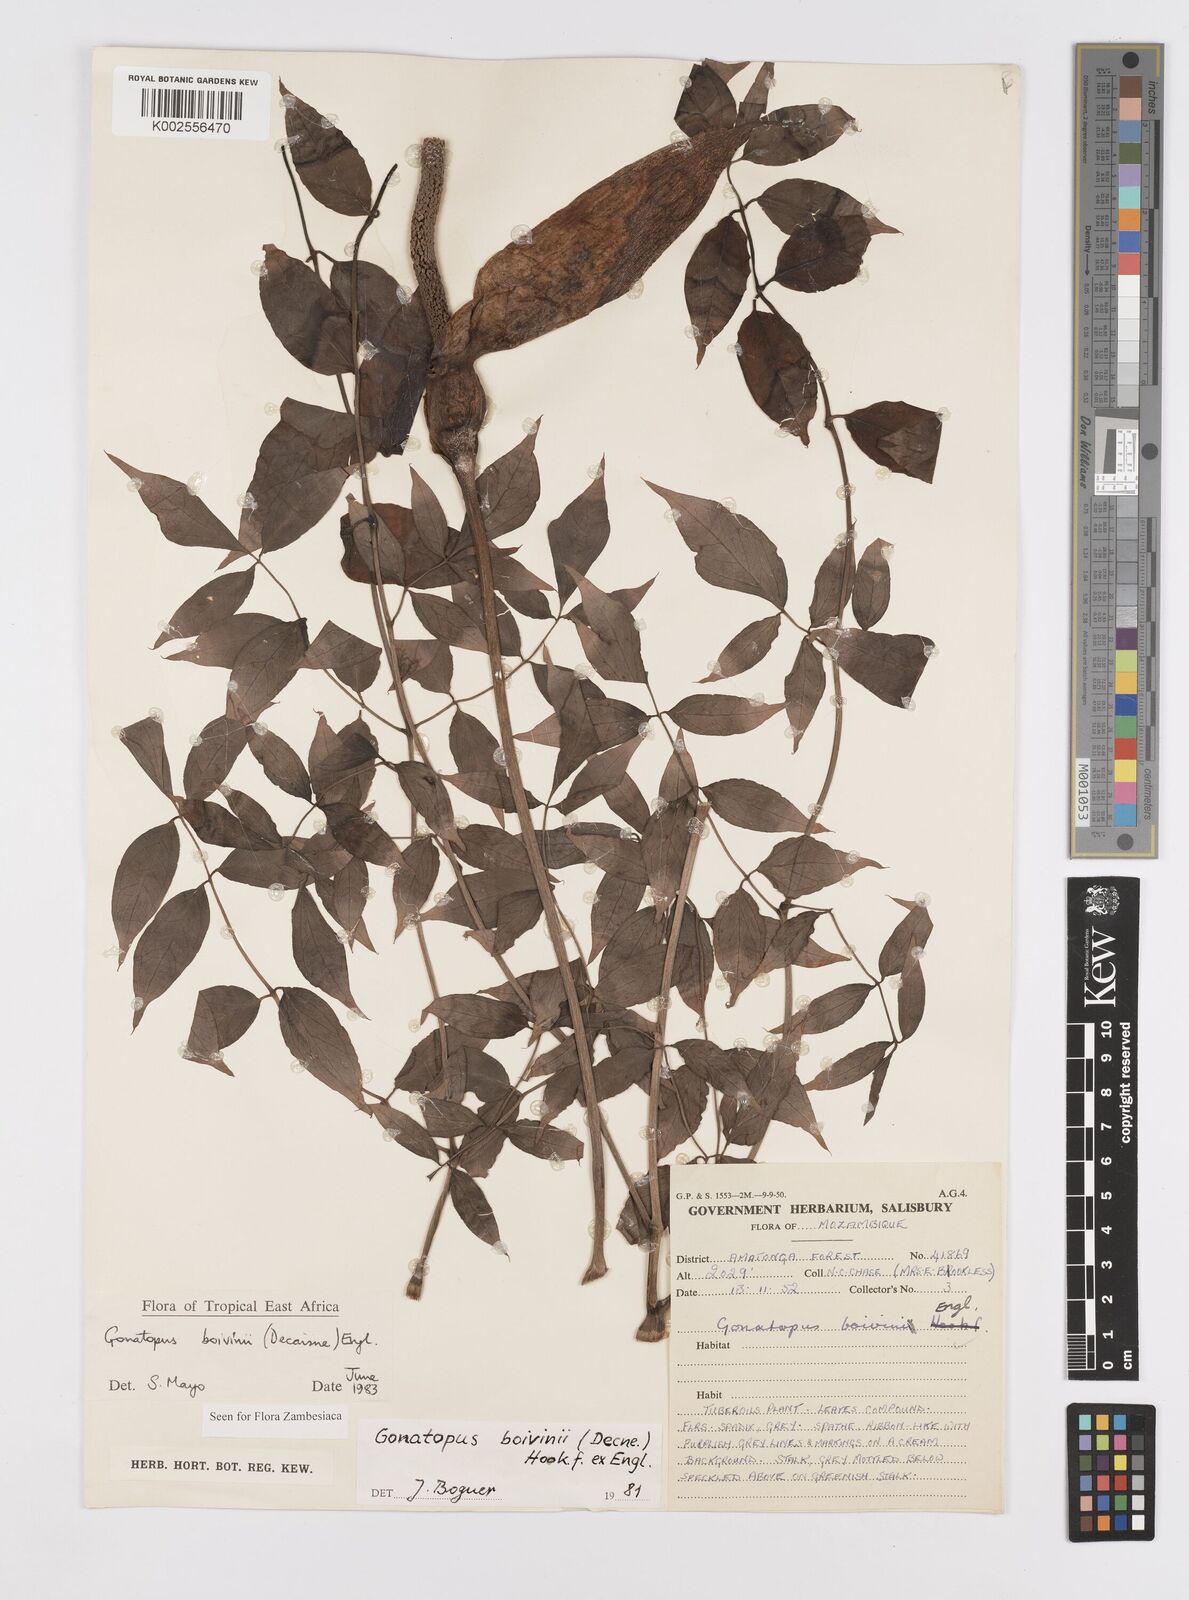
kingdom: Plantae
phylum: Tracheophyta
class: Liliopsida
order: Alismatales
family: Araceae
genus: Gonatopus
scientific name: Gonatopus boivinii
